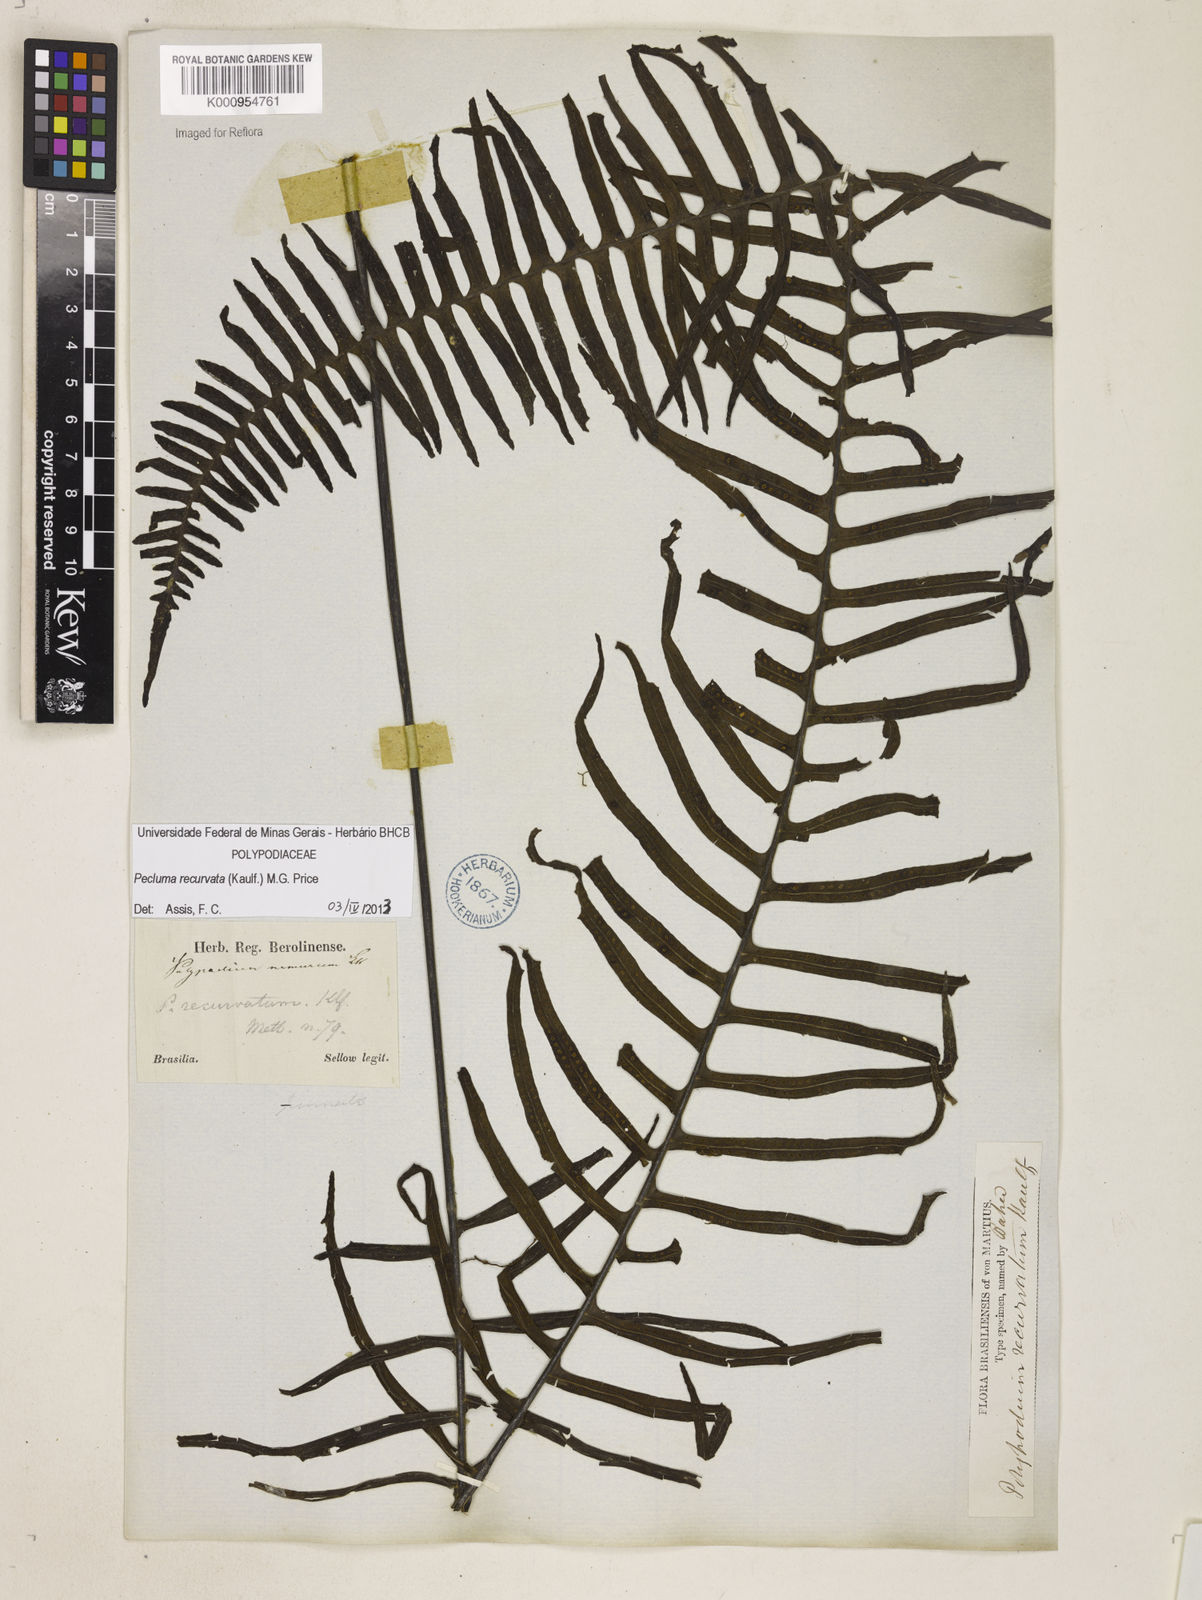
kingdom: Plantae
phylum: Tracheophyta
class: Polypodiopsida
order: Polypodiales
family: Polypodiaceae
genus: Pecluma
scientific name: Pecluma recurvata
